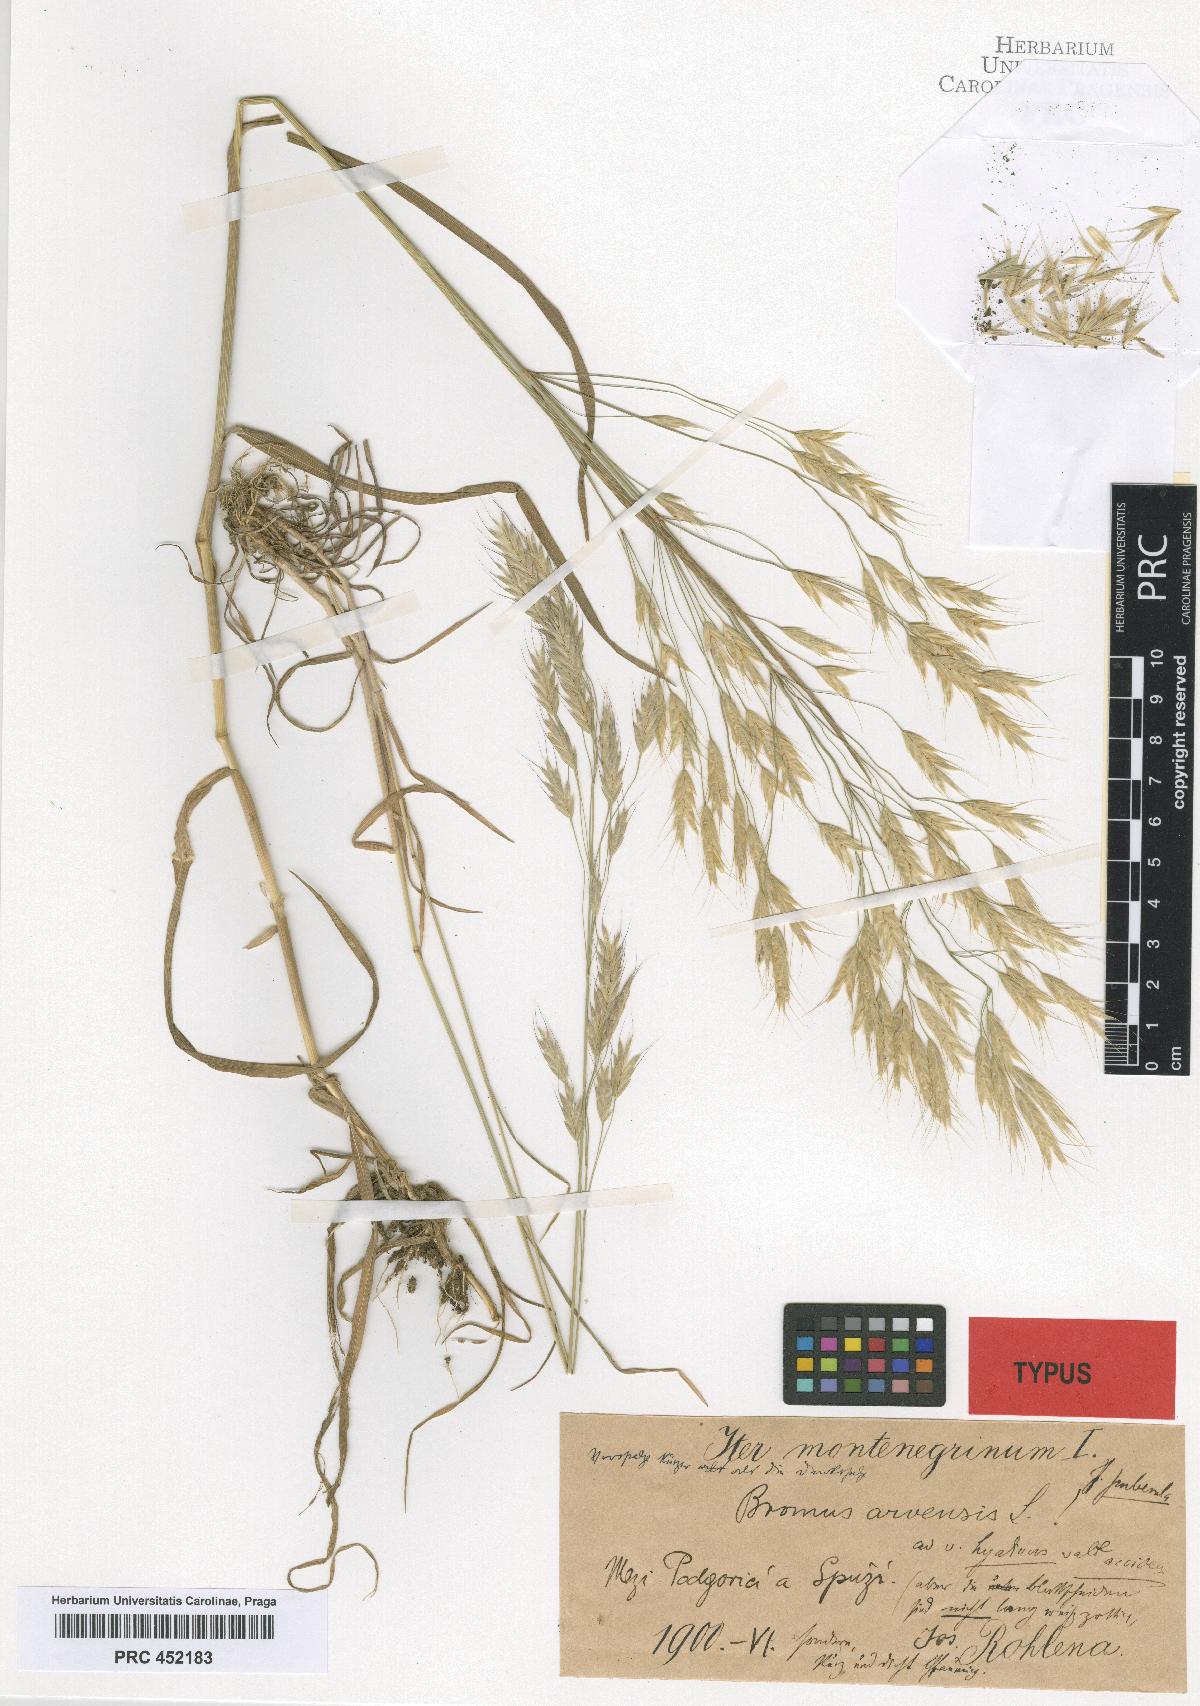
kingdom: Plantae
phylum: Tracheophyta
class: Liliopsida
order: Poales
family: Poaceae
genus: Bromus
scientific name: Bromus arvensis
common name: Field brome
